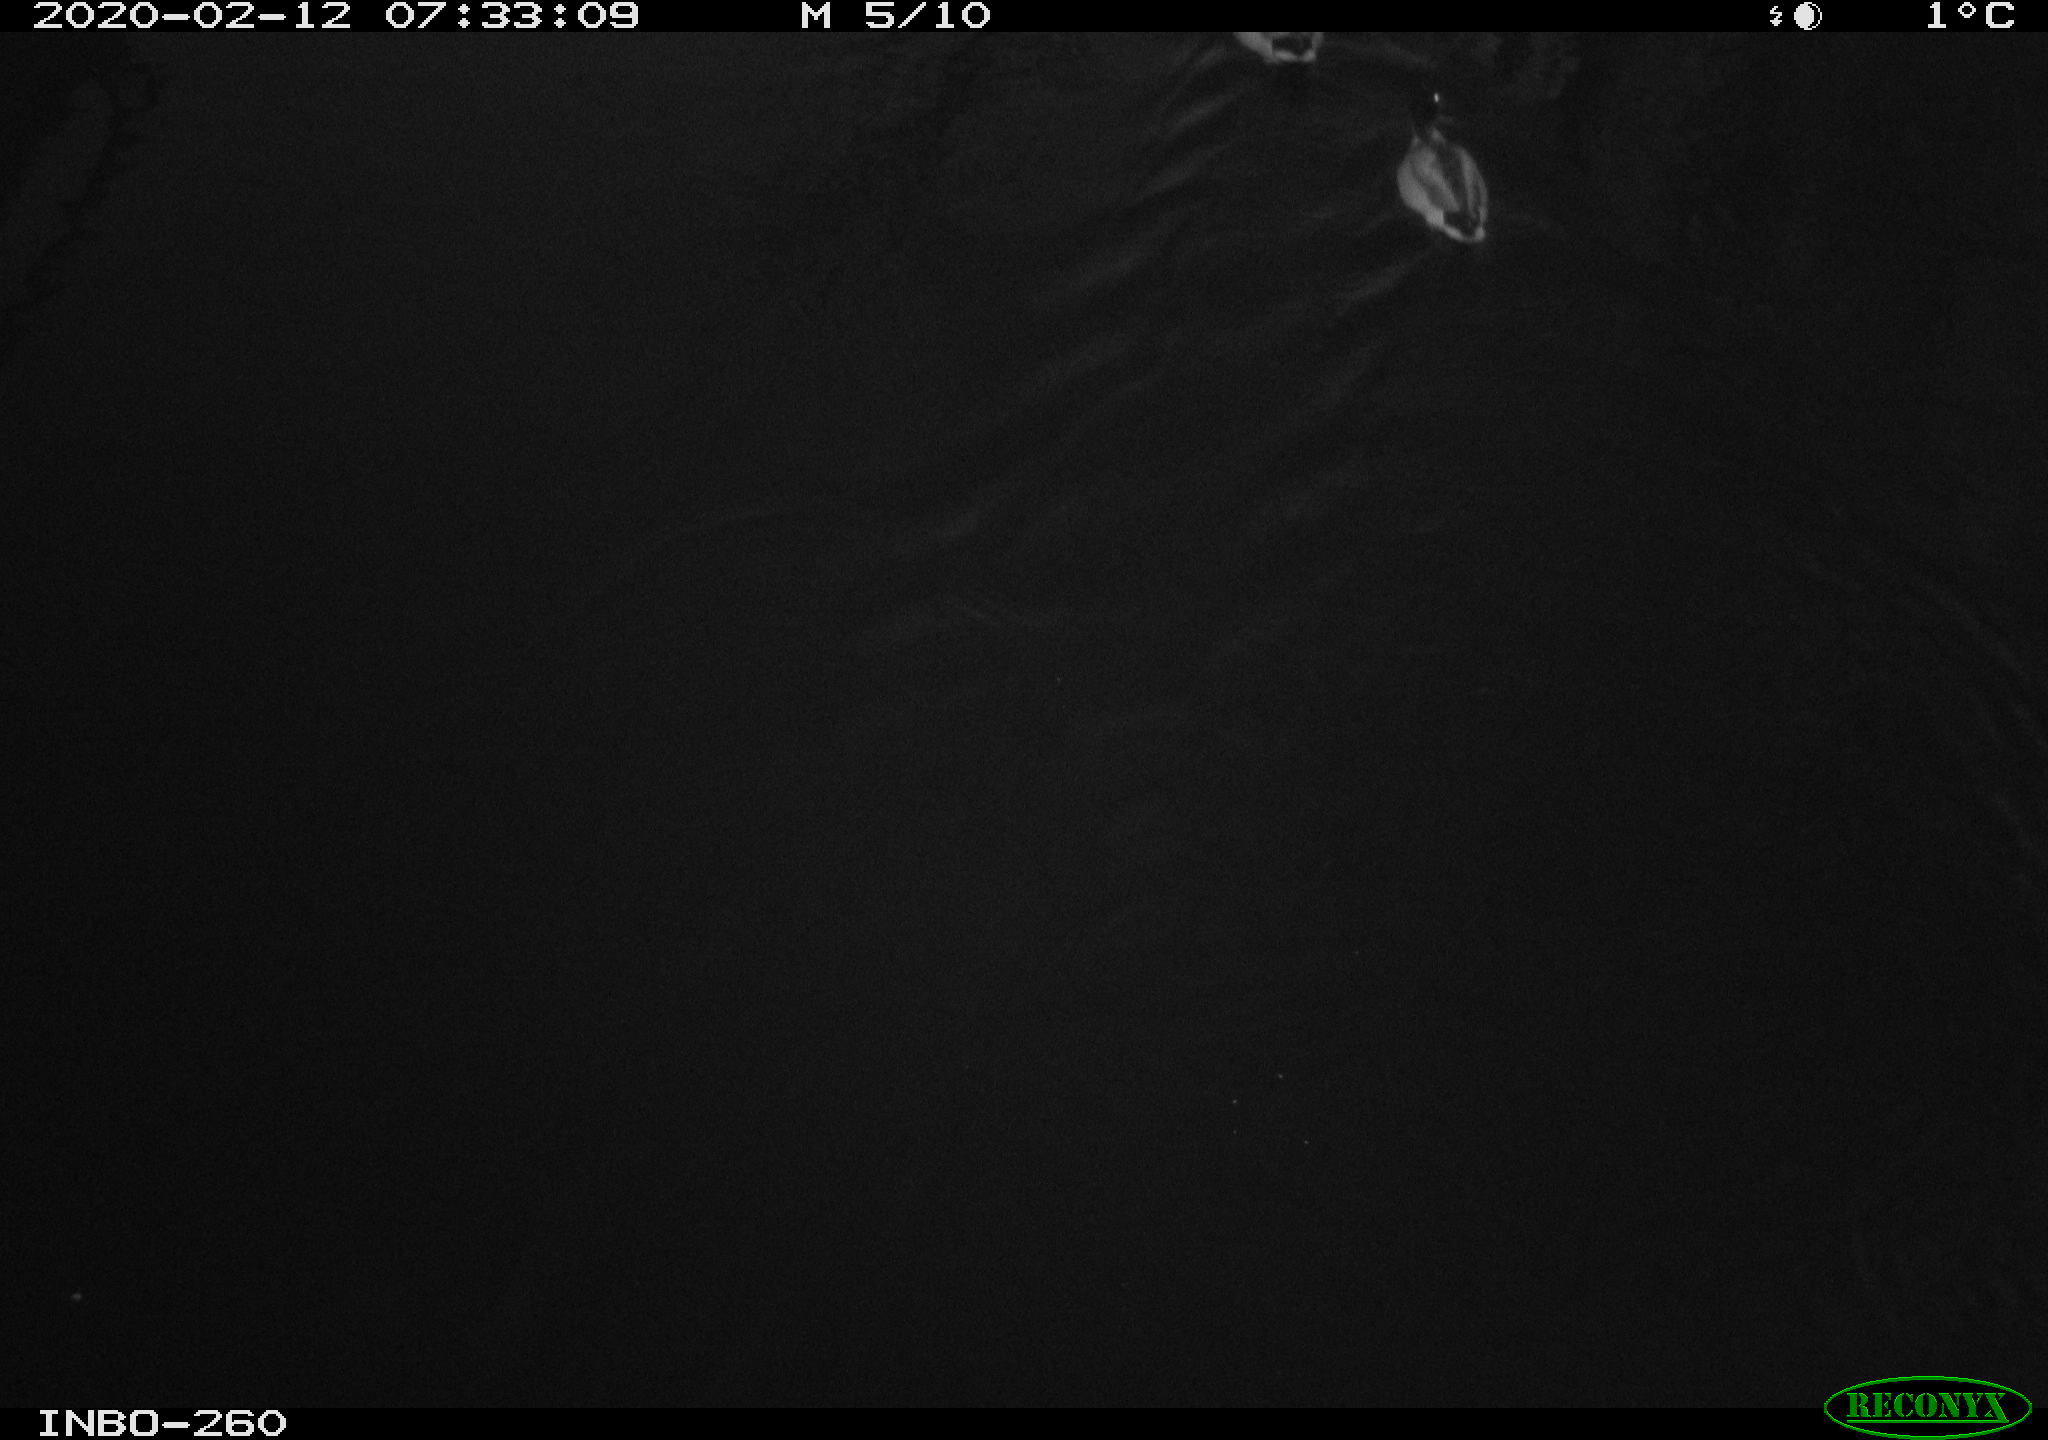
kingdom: Animalia
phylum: Chordata
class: Aves
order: Anseriformes
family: Anatidae
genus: Anas
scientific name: Anas platyrhynchos
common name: Mallard
